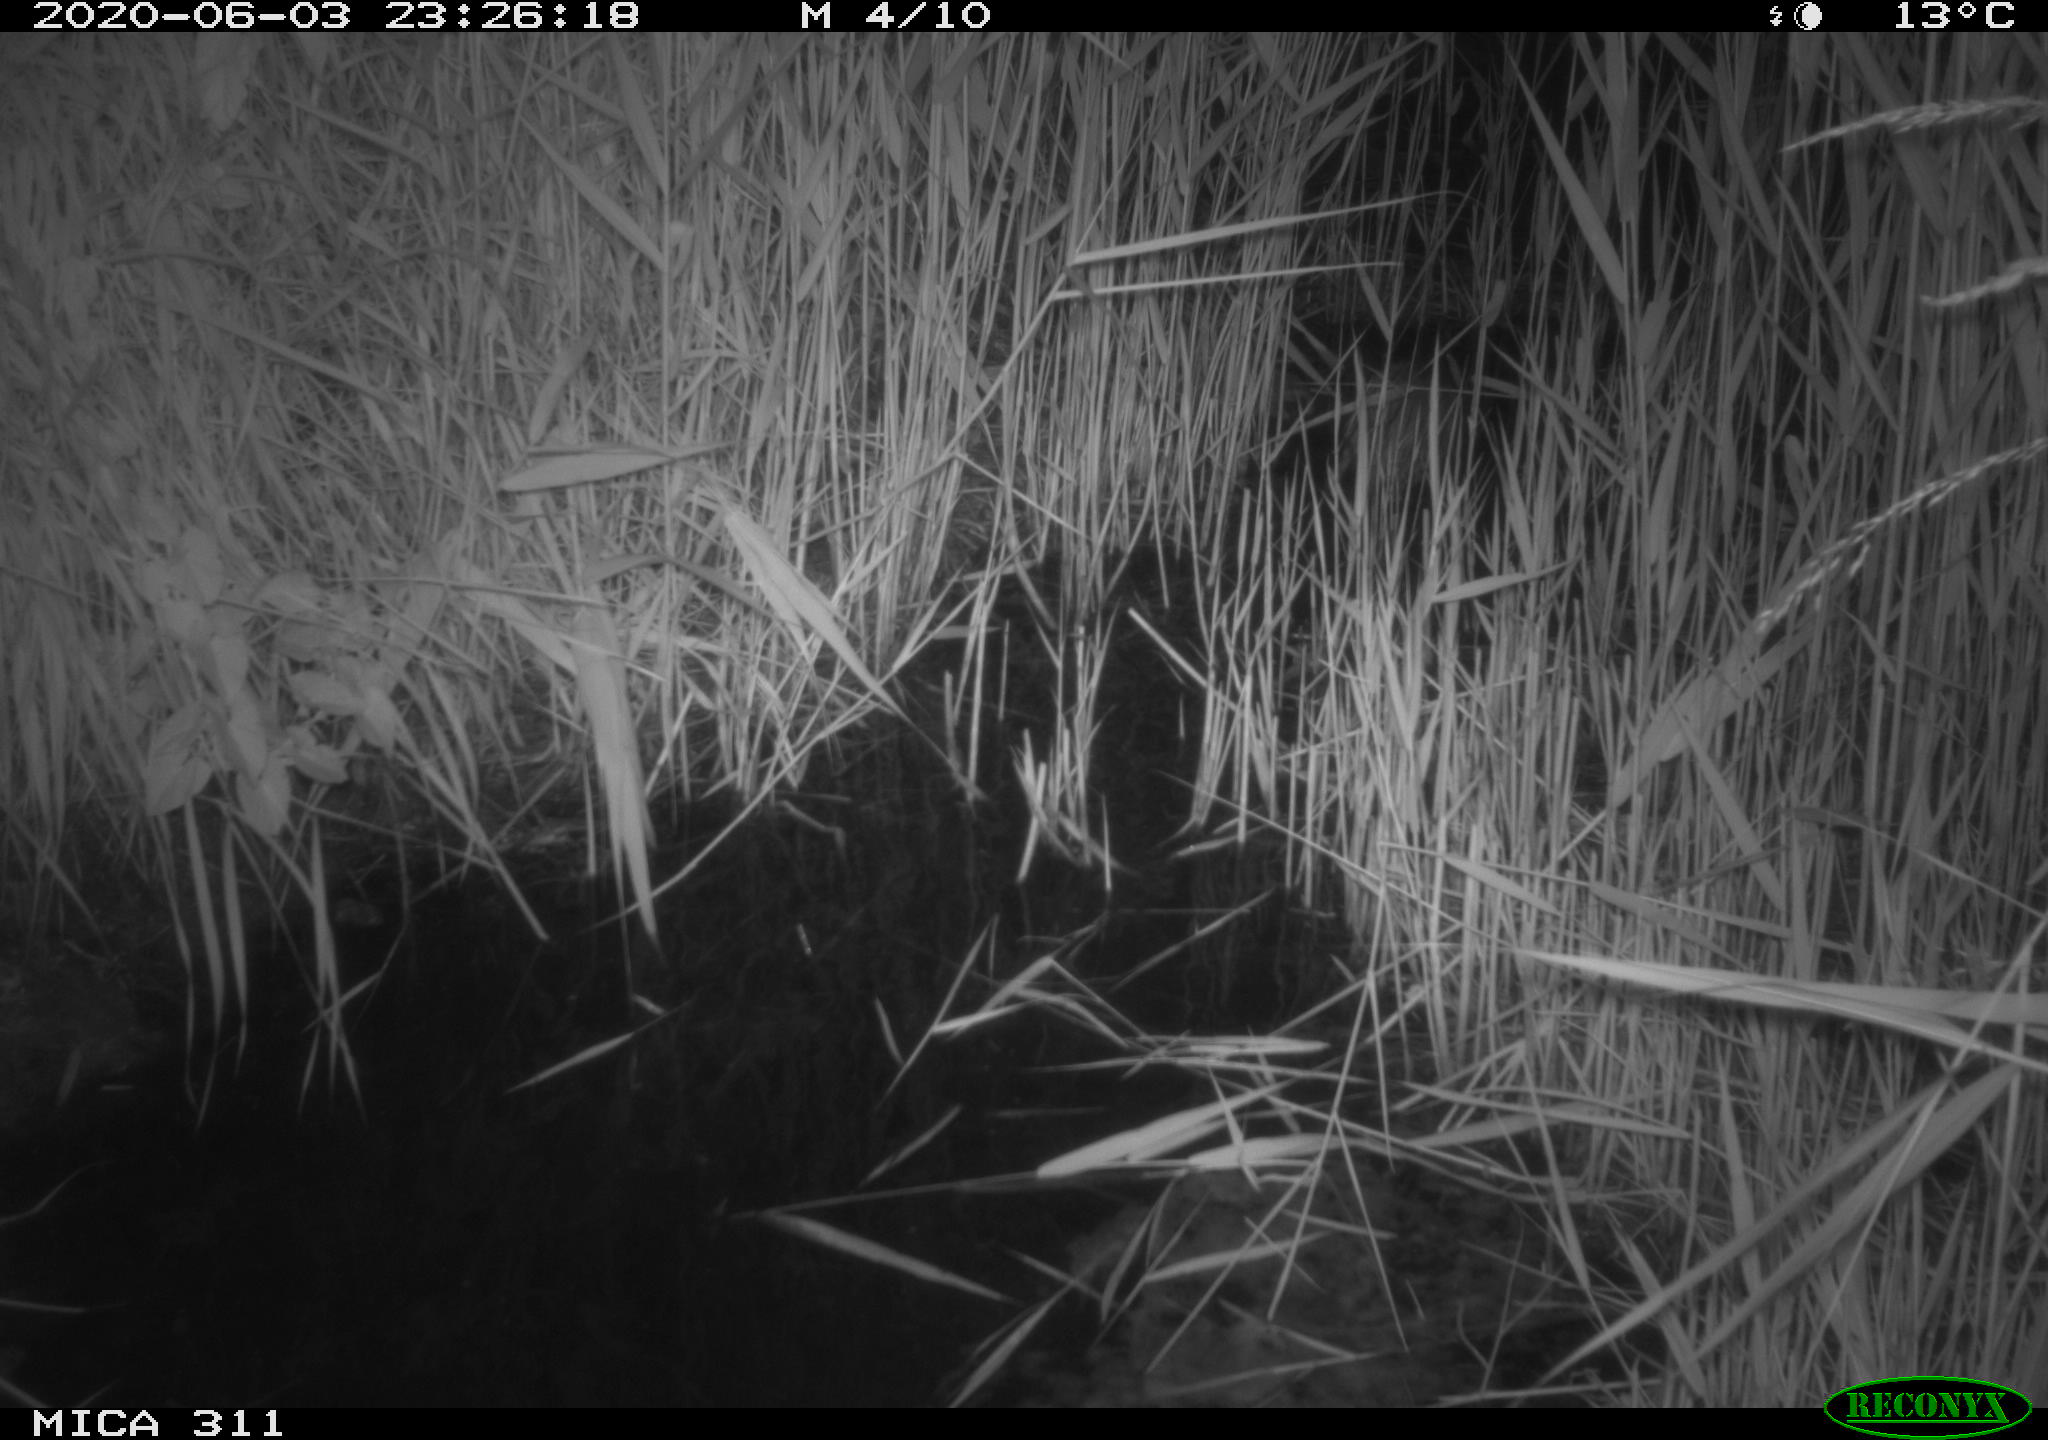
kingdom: Animalia
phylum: Chordata
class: Mammalia
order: Rodentia
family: Cricetidae
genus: Ondatra
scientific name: Ondatra zibethicus
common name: Muskrat
